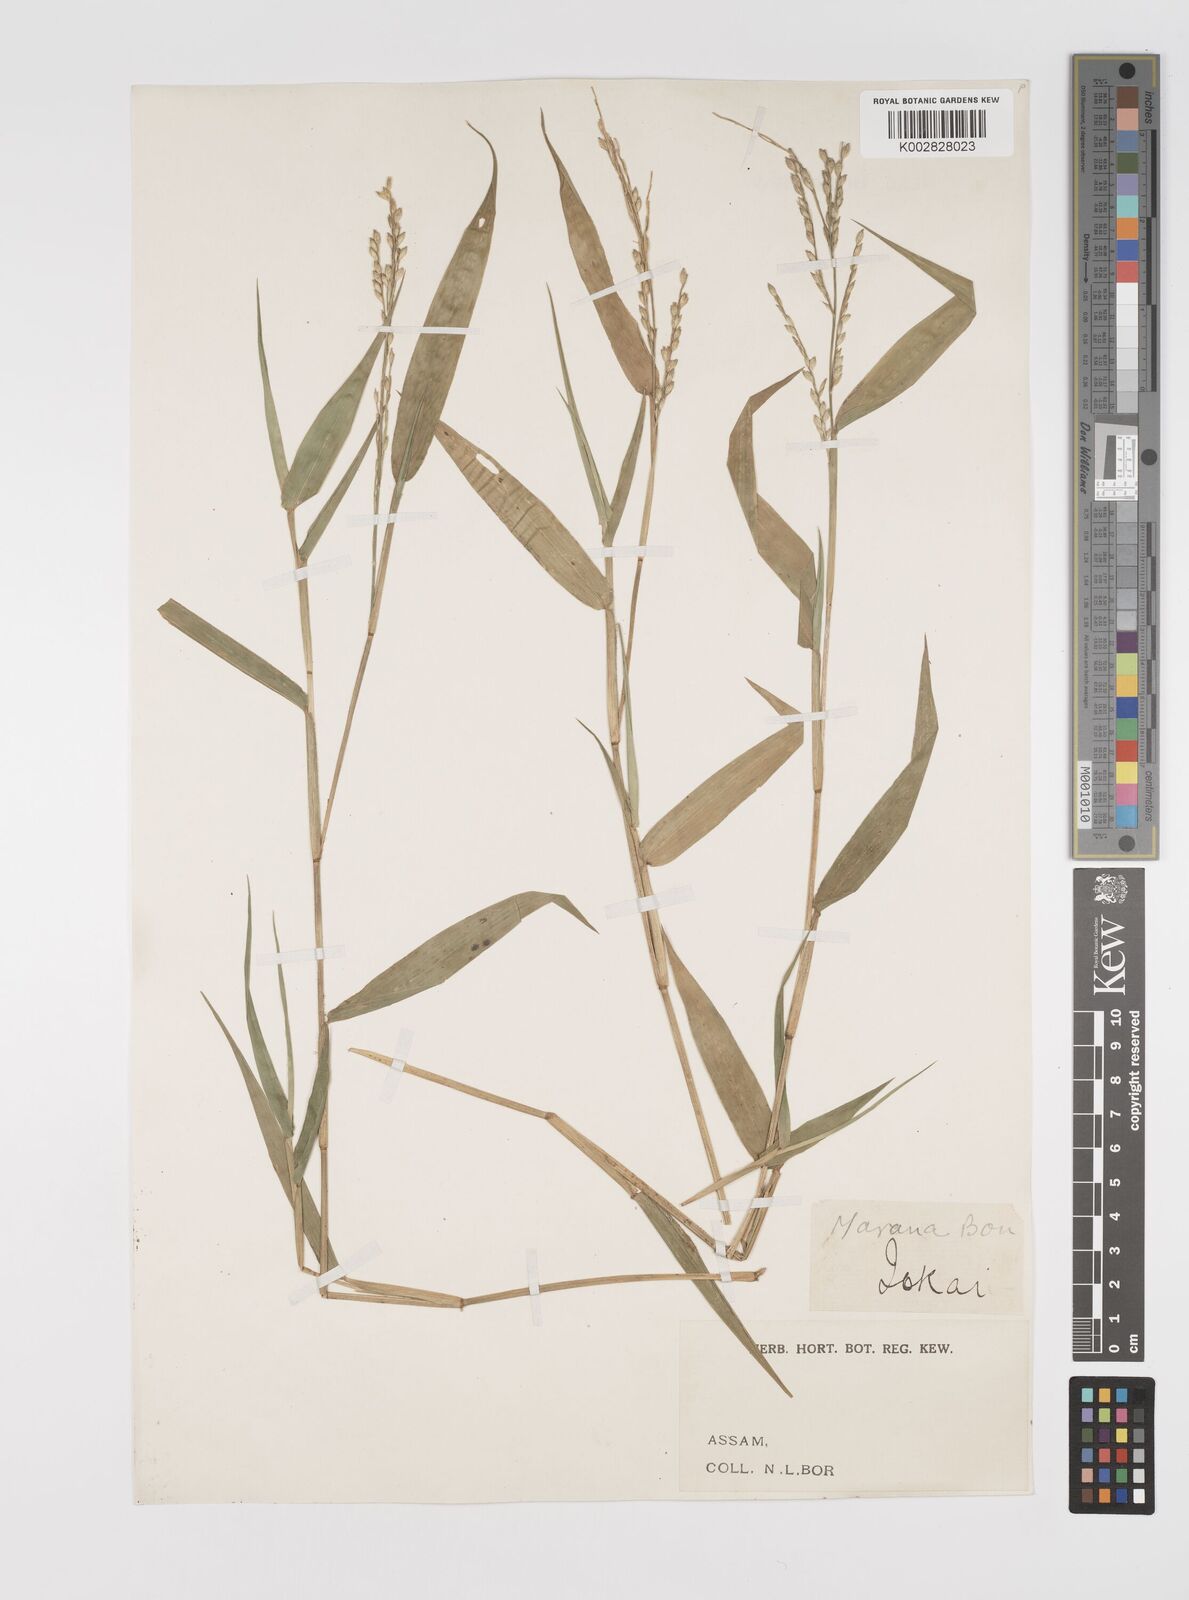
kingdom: Plantae
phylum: Tracheophyta
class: Liliopsida
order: Poales
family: Poaceae
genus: Acroceras
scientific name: Acroceras
